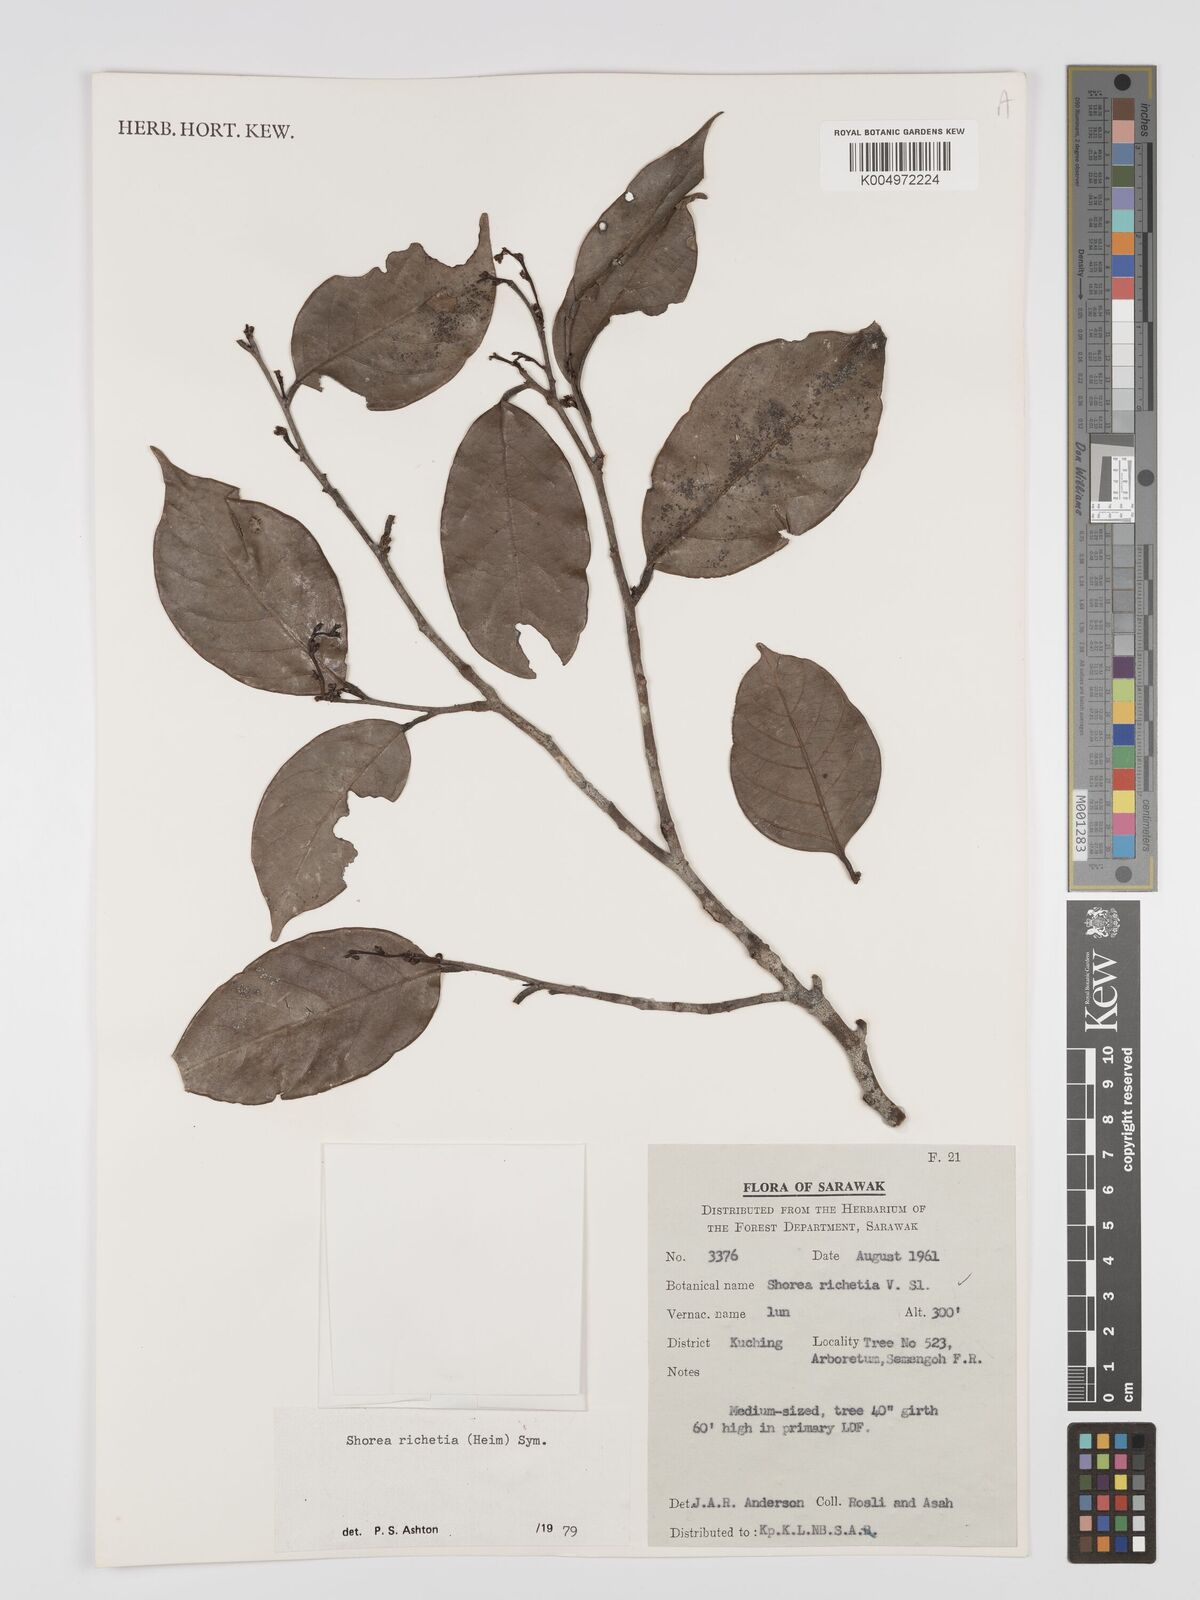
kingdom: Plantae
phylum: Tracheophyta
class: Magnoliopsida
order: Malvales
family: Dipterocarpaceae
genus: Shorea
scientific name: Shorea richetia
